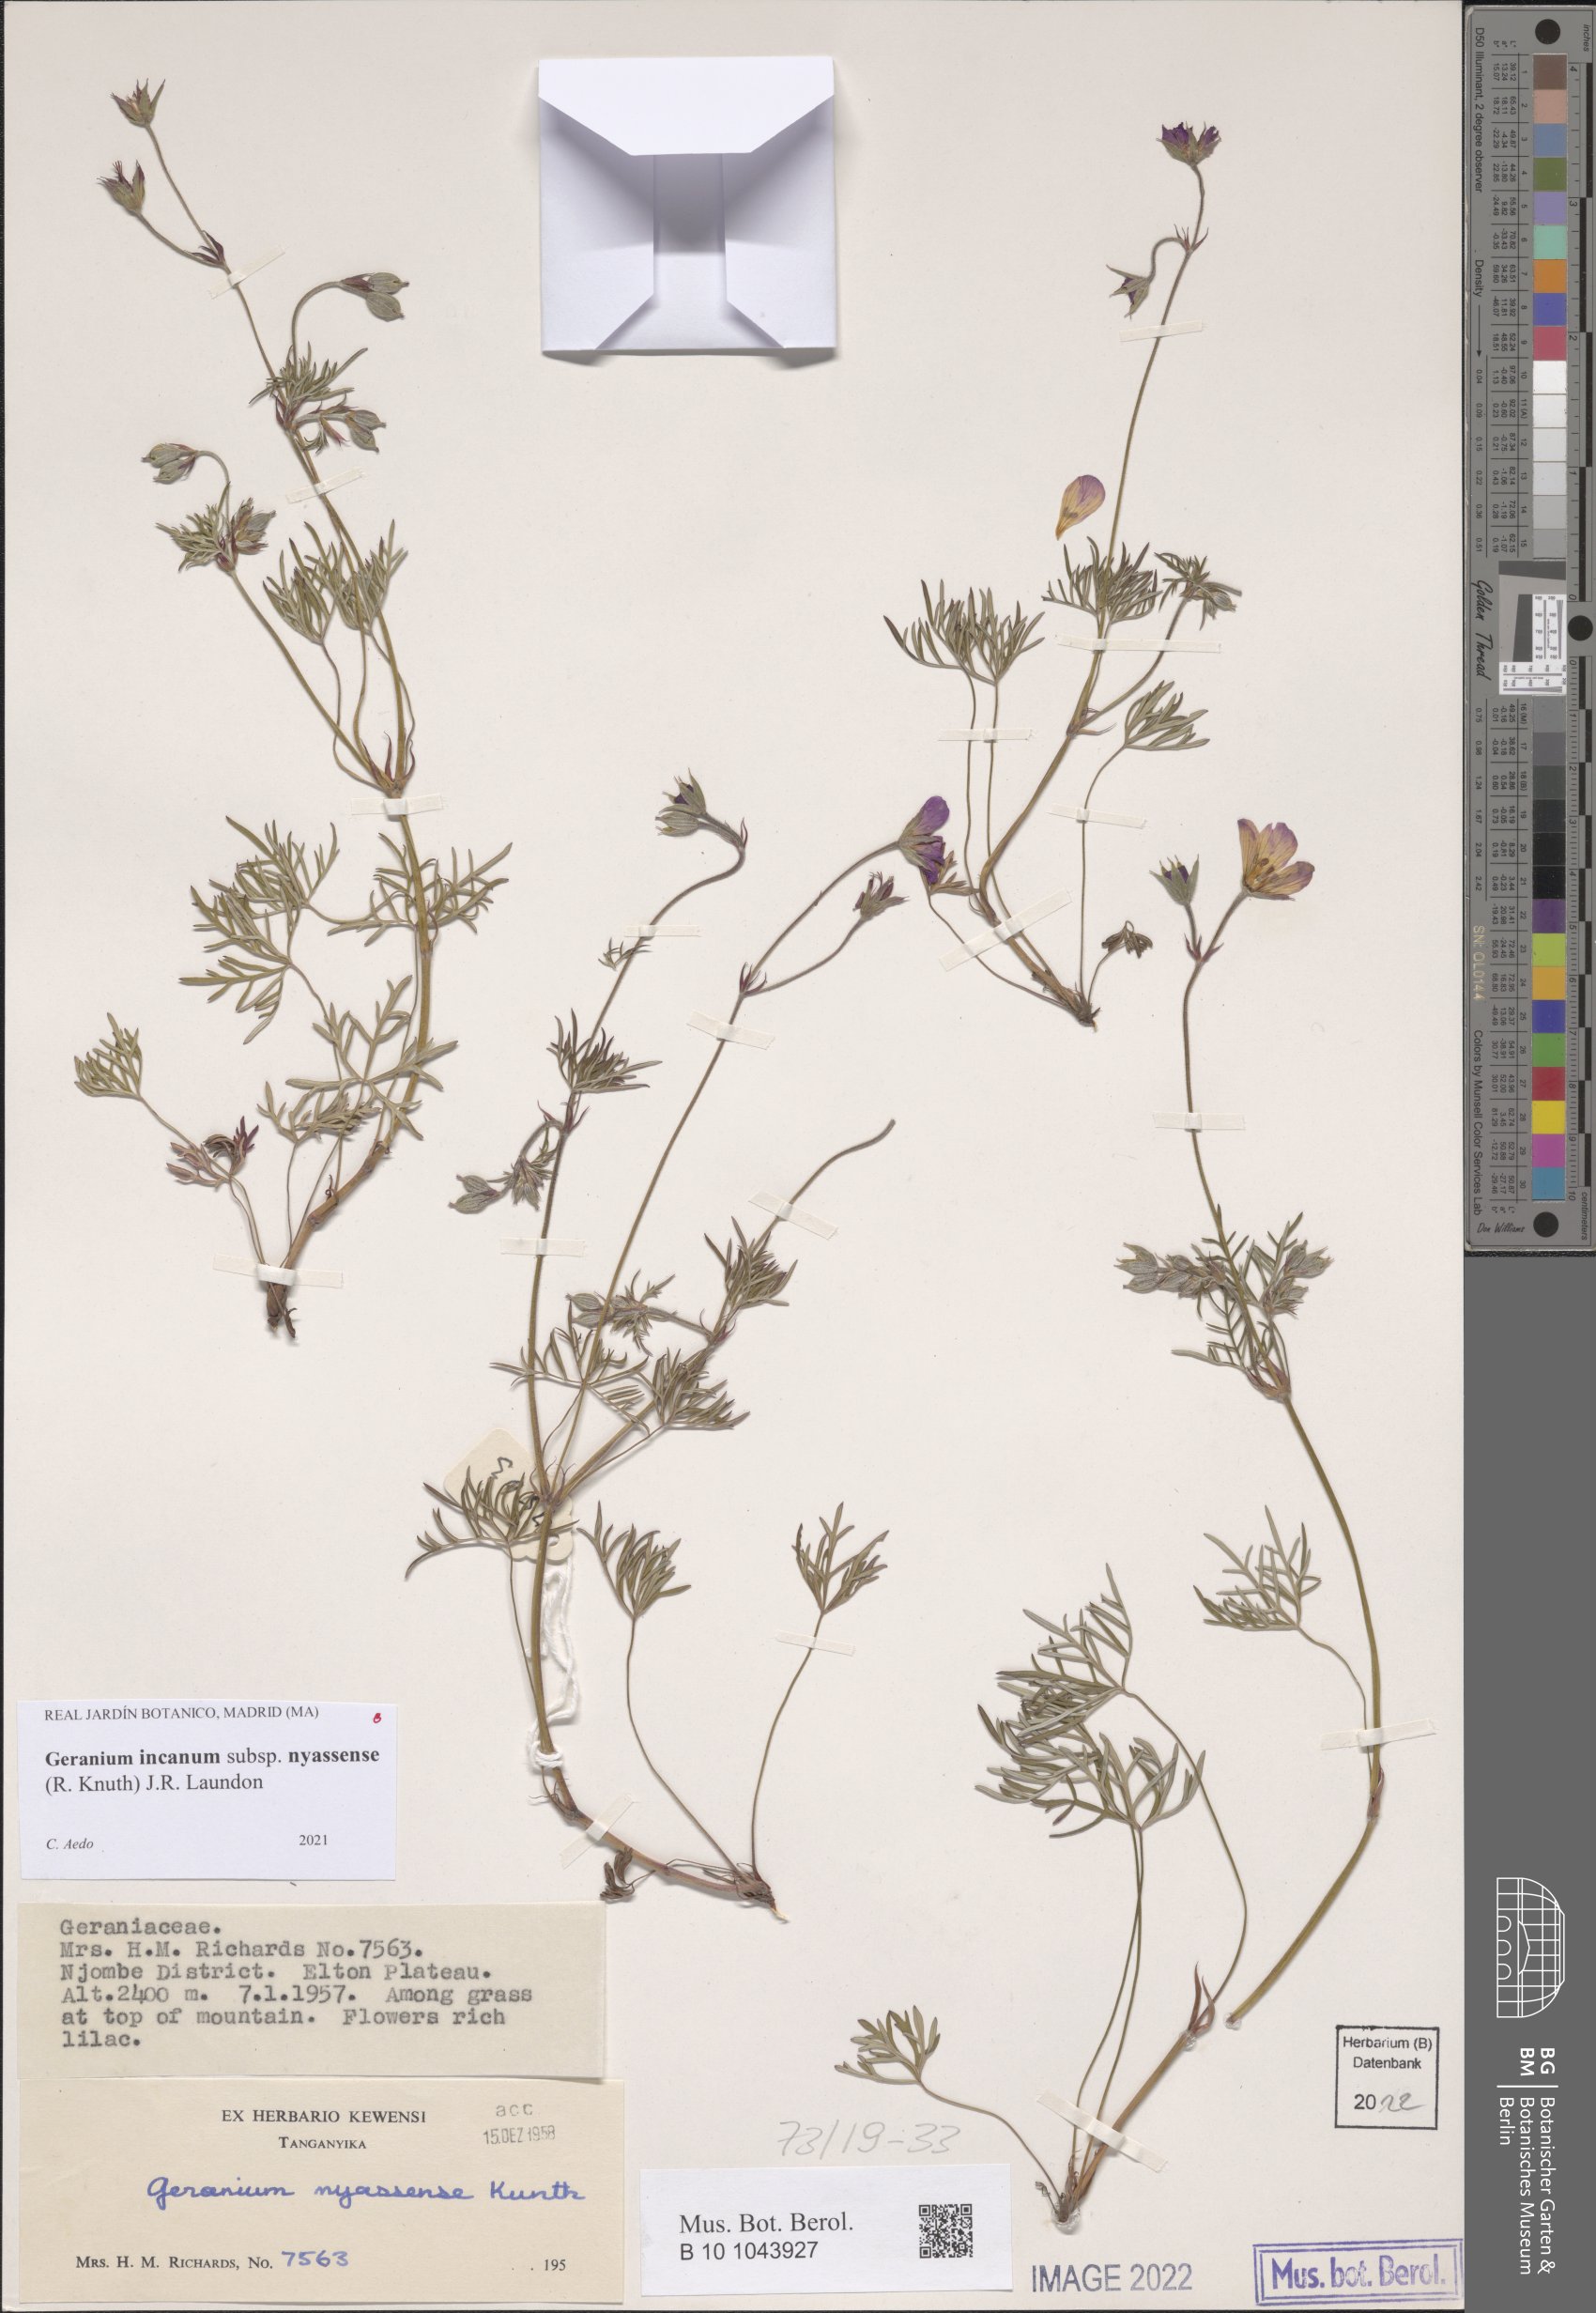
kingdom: Plantae
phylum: Tracheophyta
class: Magnoliopsida
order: Geraniales
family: Geraniaceae
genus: Geranium
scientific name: Geranium nyassense
